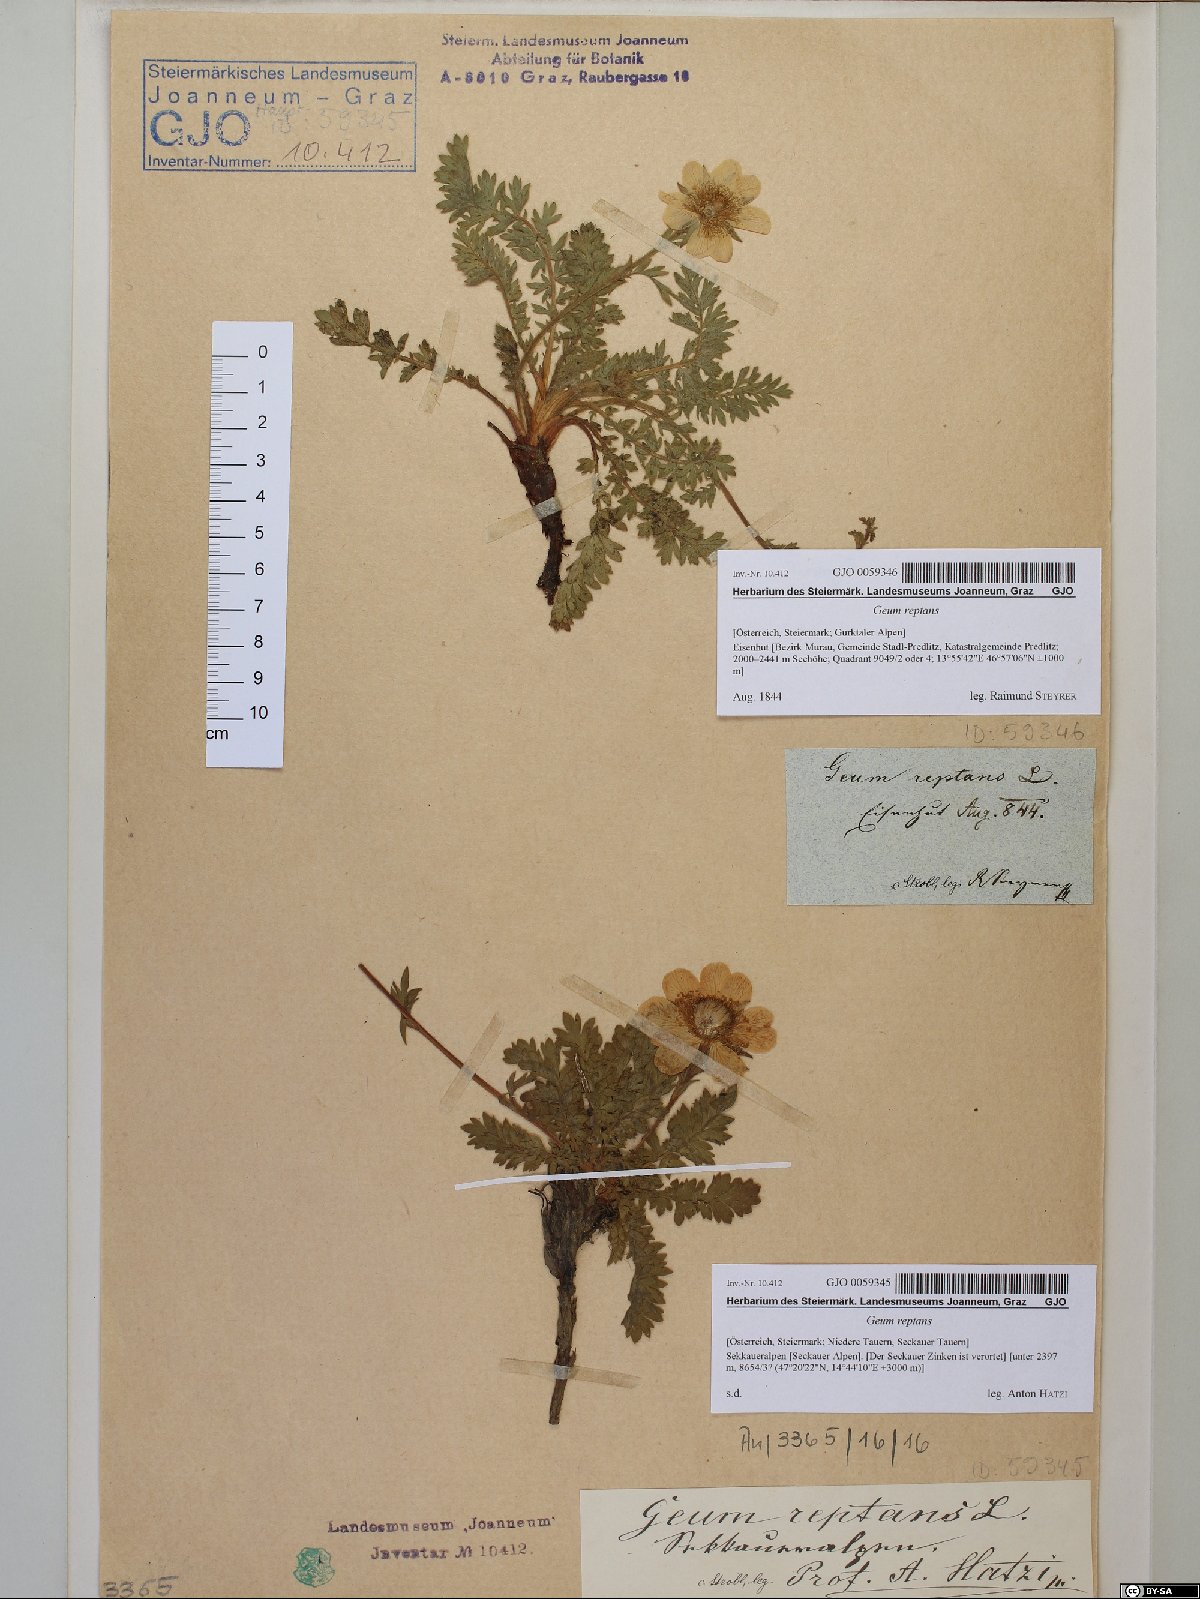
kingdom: Plantae
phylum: Tracheophyta
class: Magnoliopsida
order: Rosales
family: Rosaceae
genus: Geum
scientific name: Geum reptans
